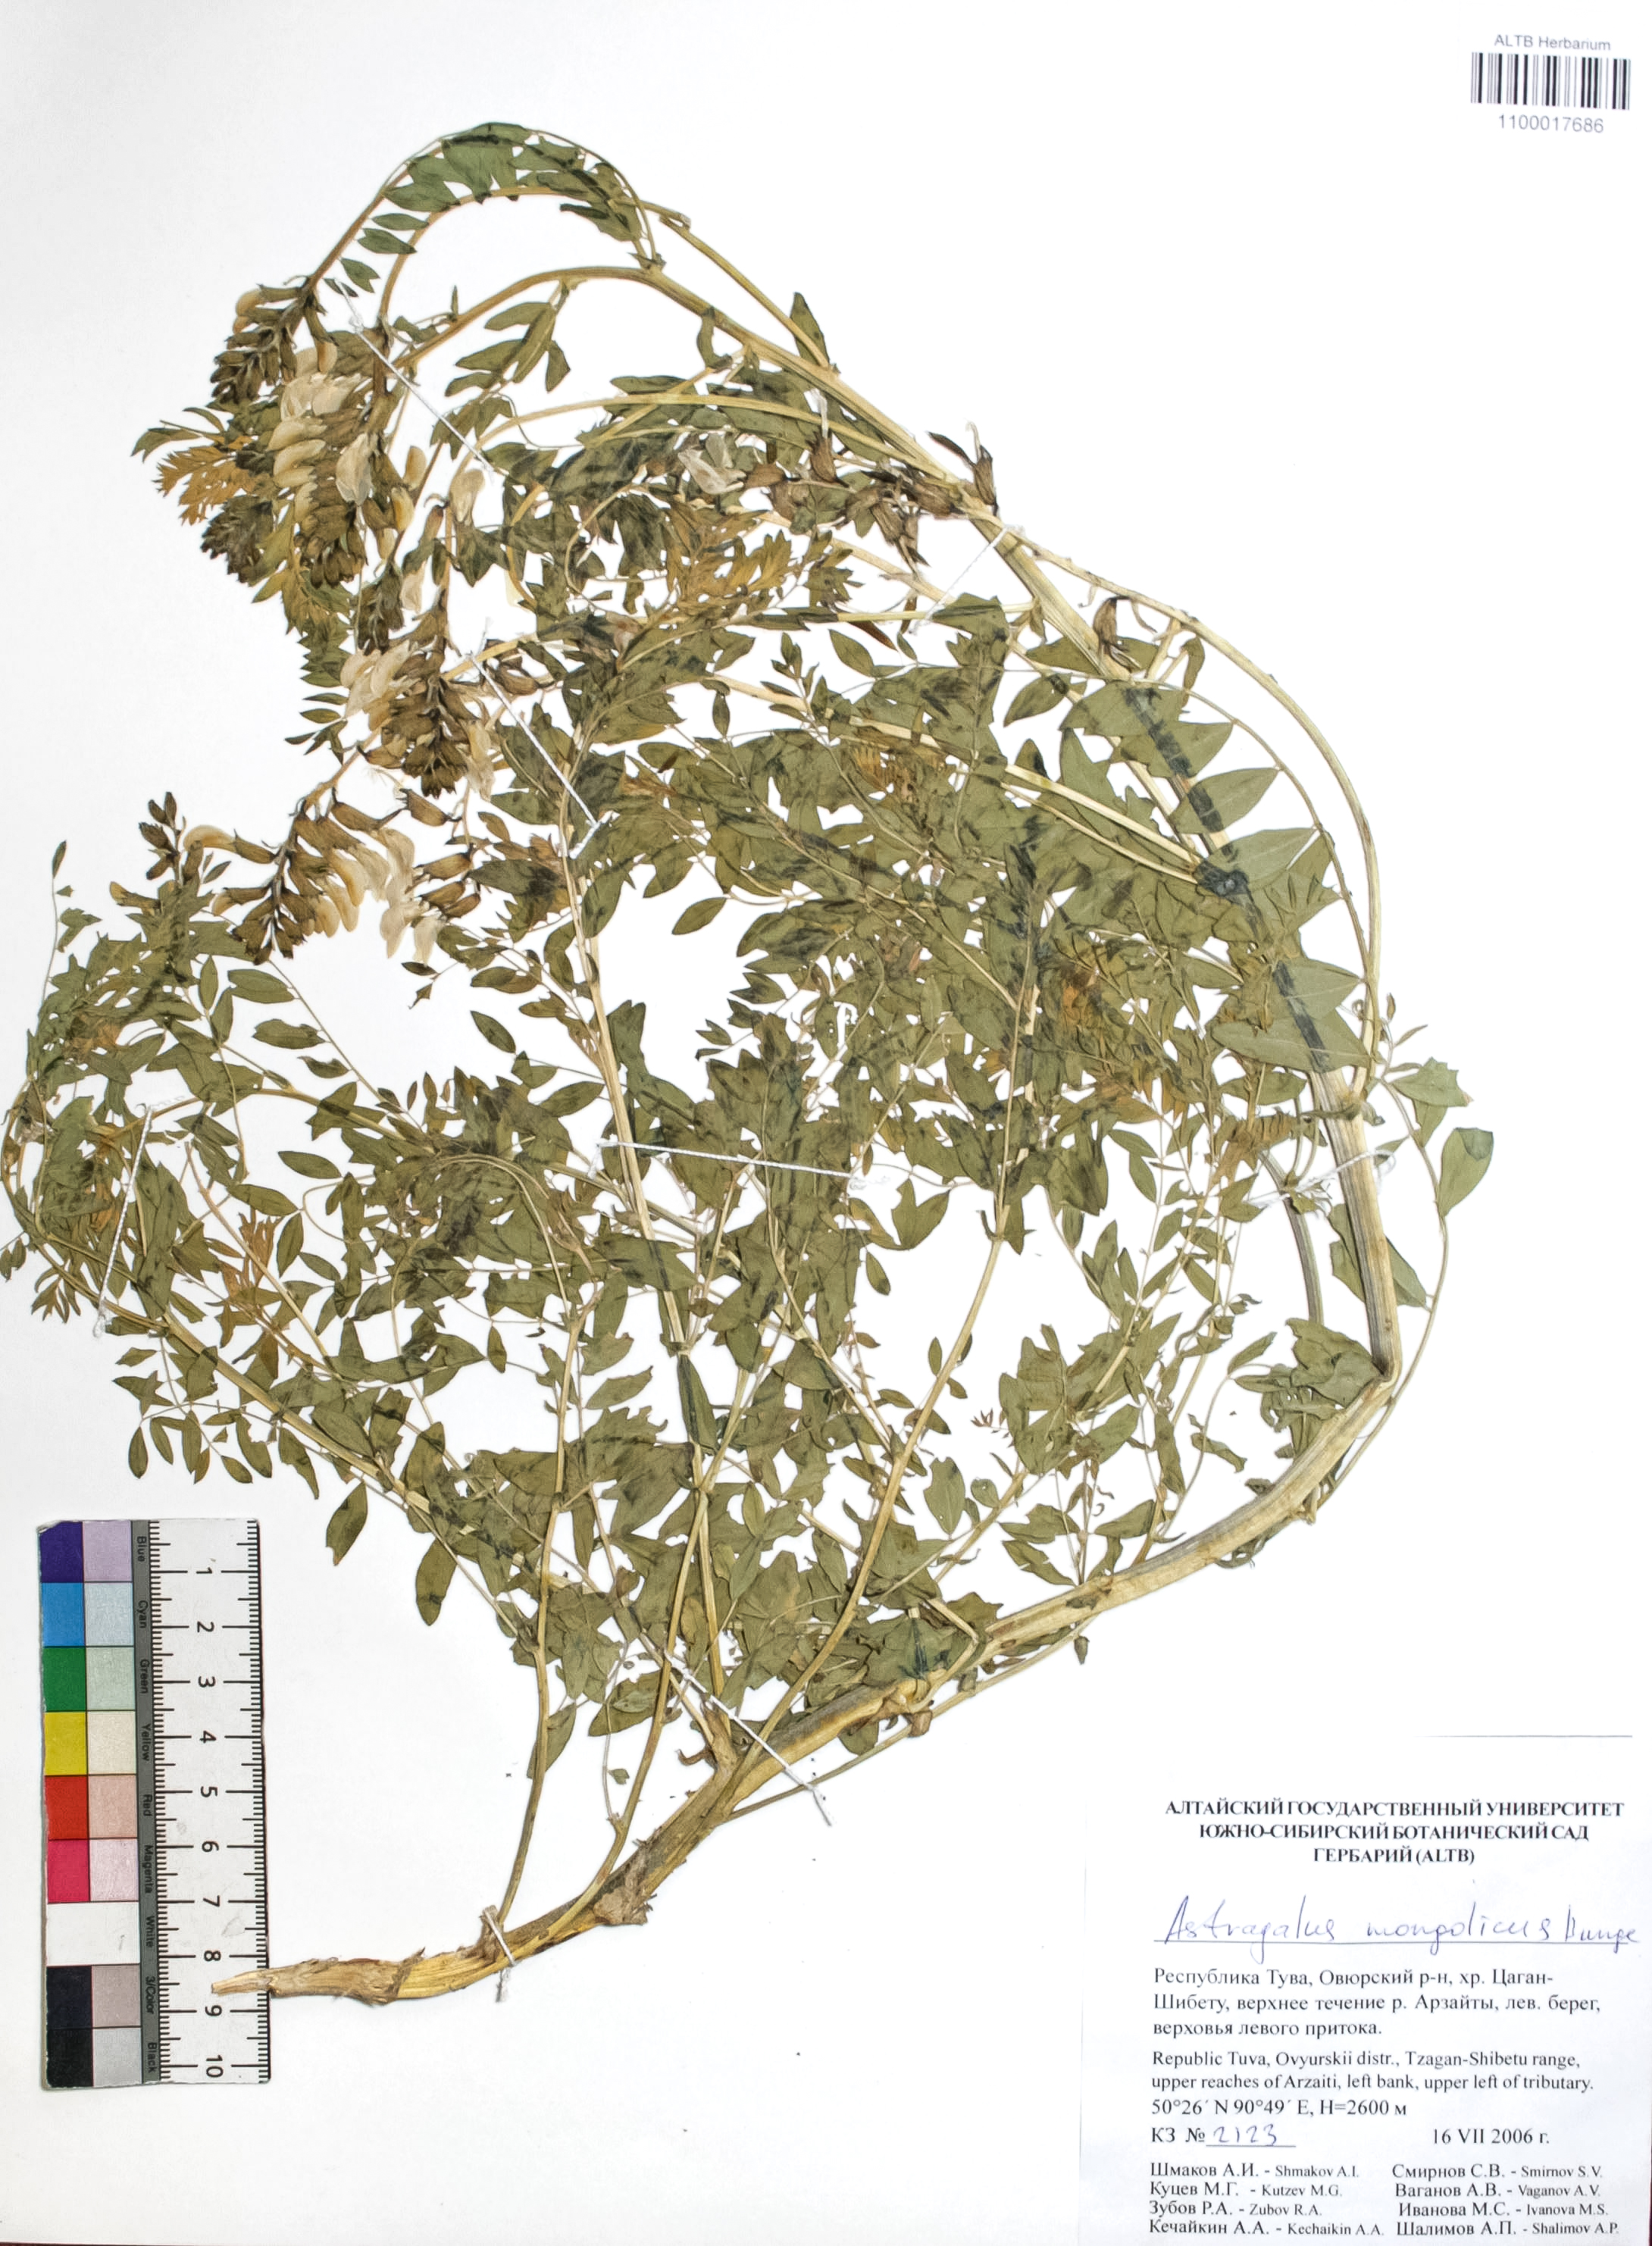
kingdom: Plantae
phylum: Tracheophyta
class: Magnoliopsida
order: Fabales
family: Fabaceae
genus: Astragalus
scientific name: Astragalus mongolicus
